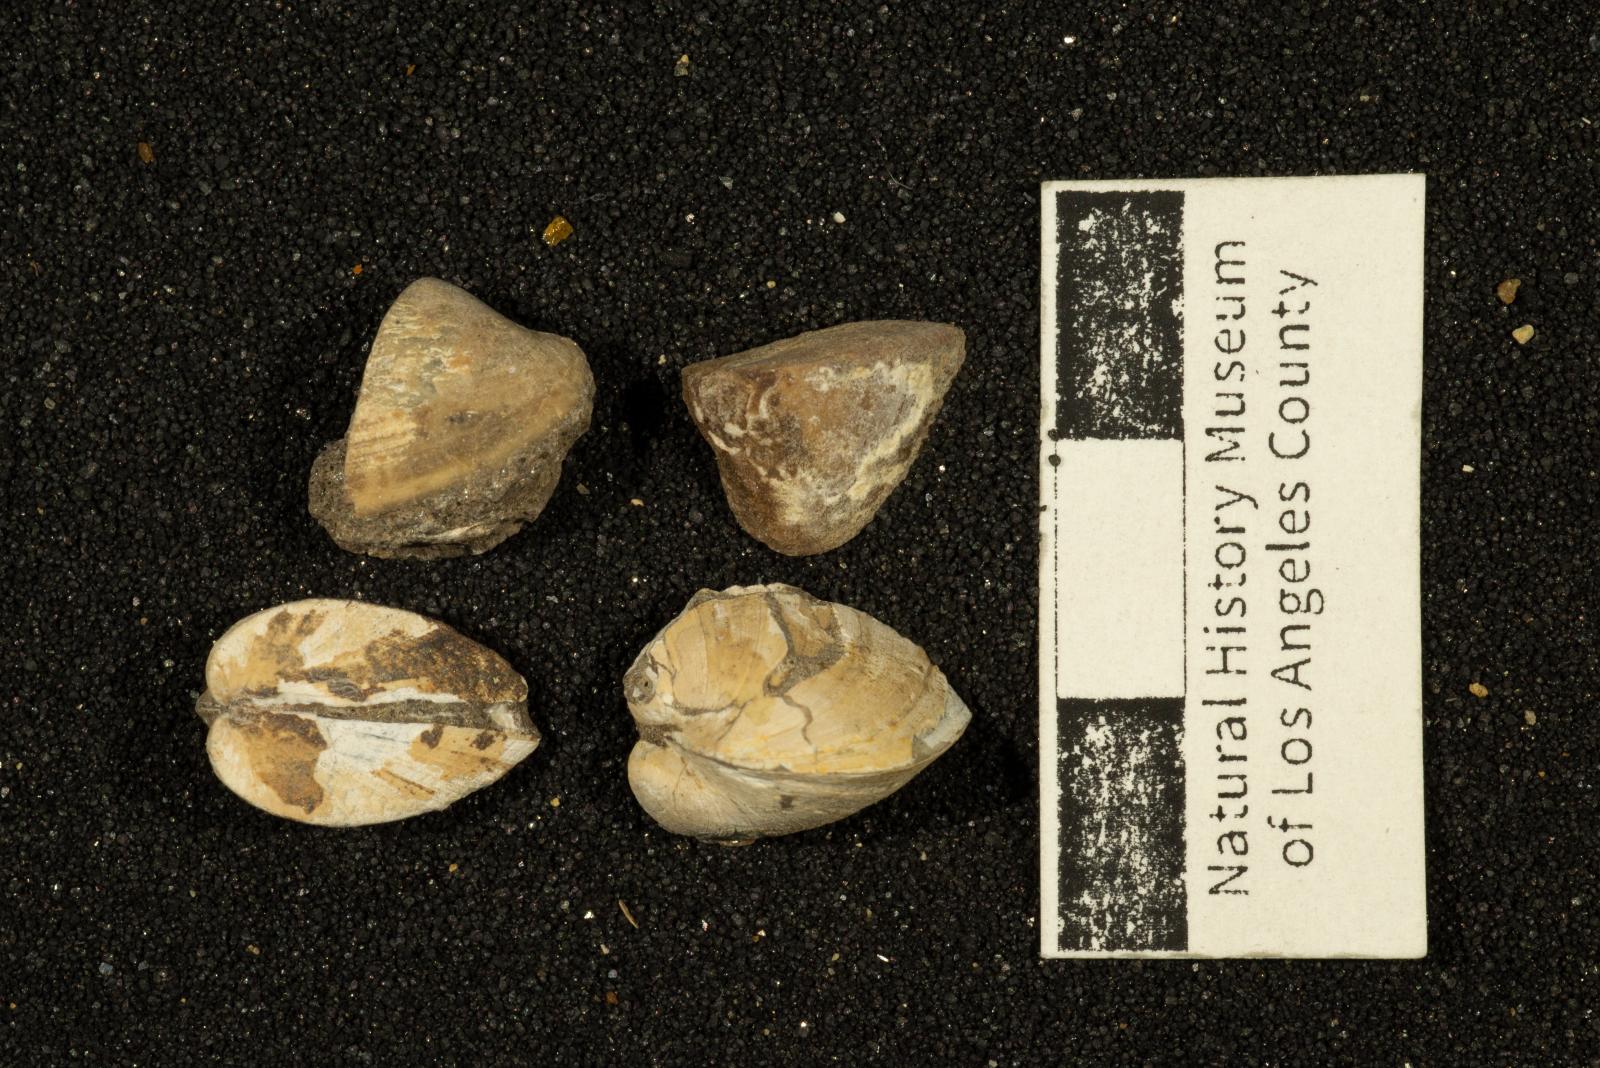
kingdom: Animalia
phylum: Mollusca
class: Bivalvia
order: Arcida
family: Noetiidae
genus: Trinacria
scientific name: Trinacria cor
